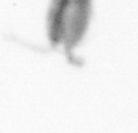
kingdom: Animalia
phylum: Arthropoda
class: Copepoda
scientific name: Copepoda
